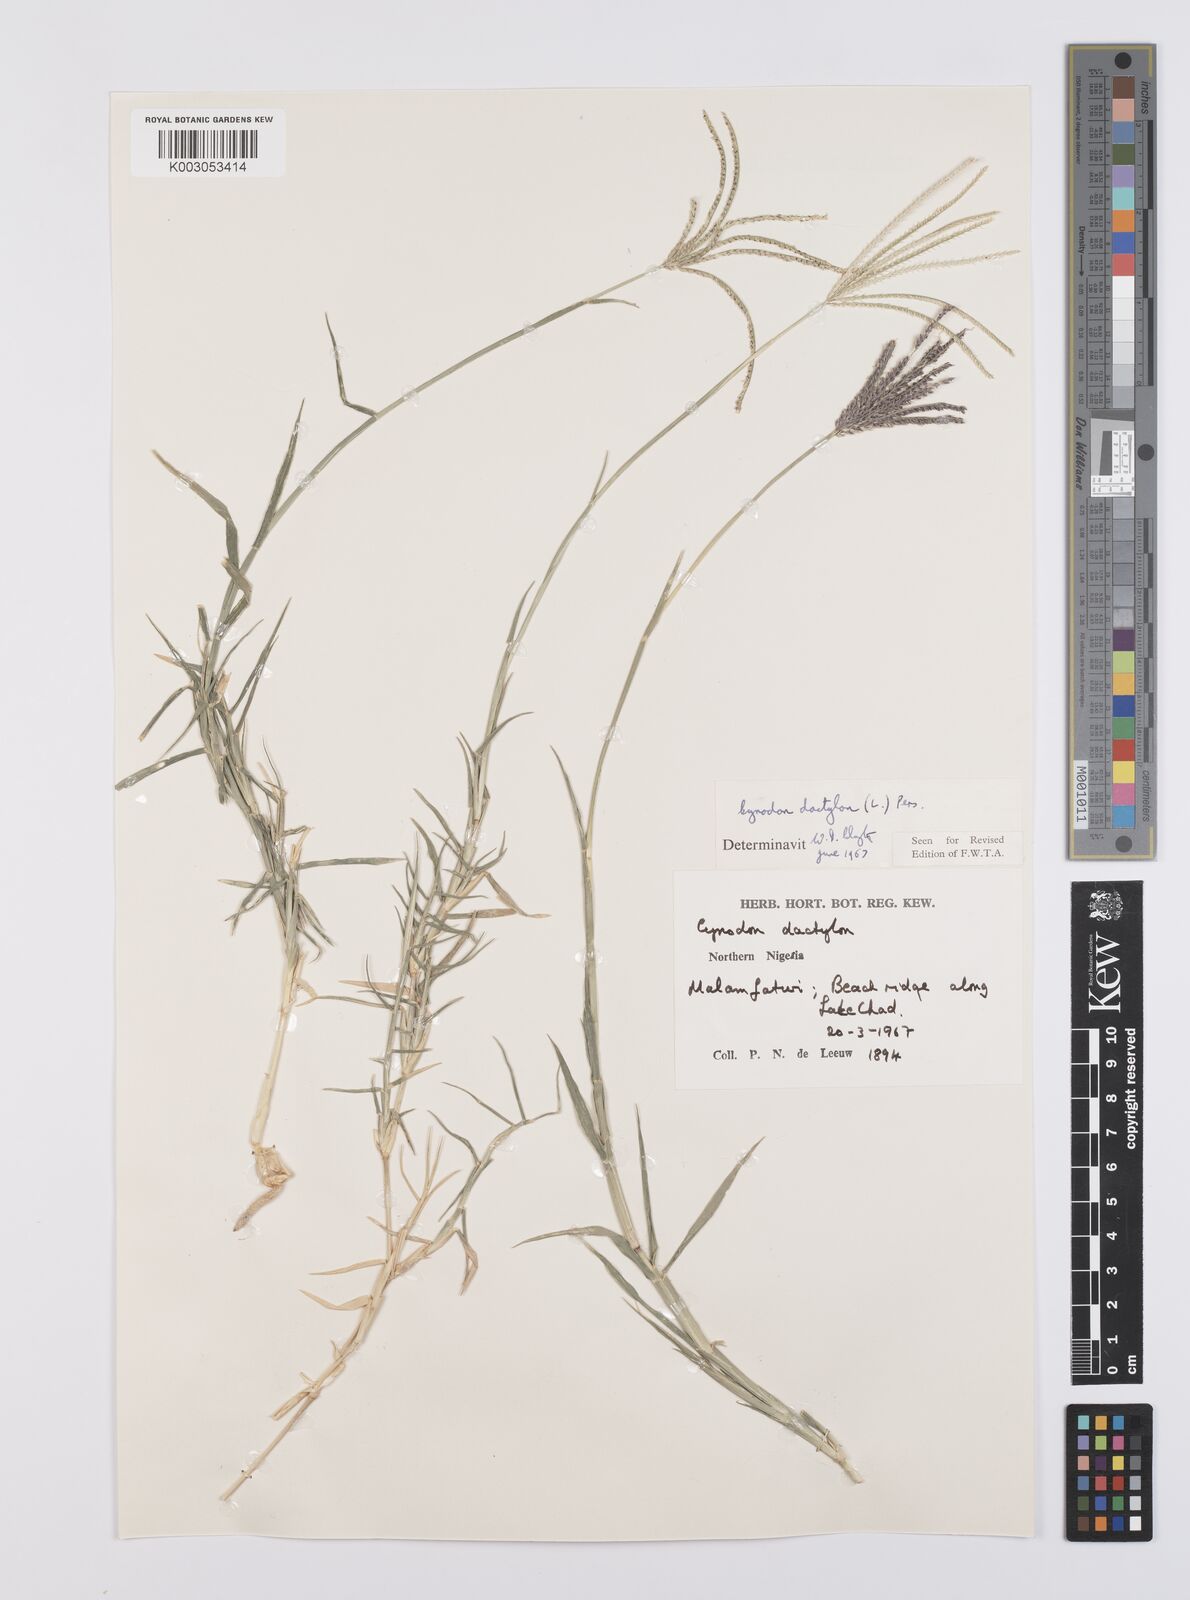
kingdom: Plantae
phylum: Tracheophyta
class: Liliopsida
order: Poales
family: Poaceae
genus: Cynodon
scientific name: Cynodon dactylon
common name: Bermuda grass
